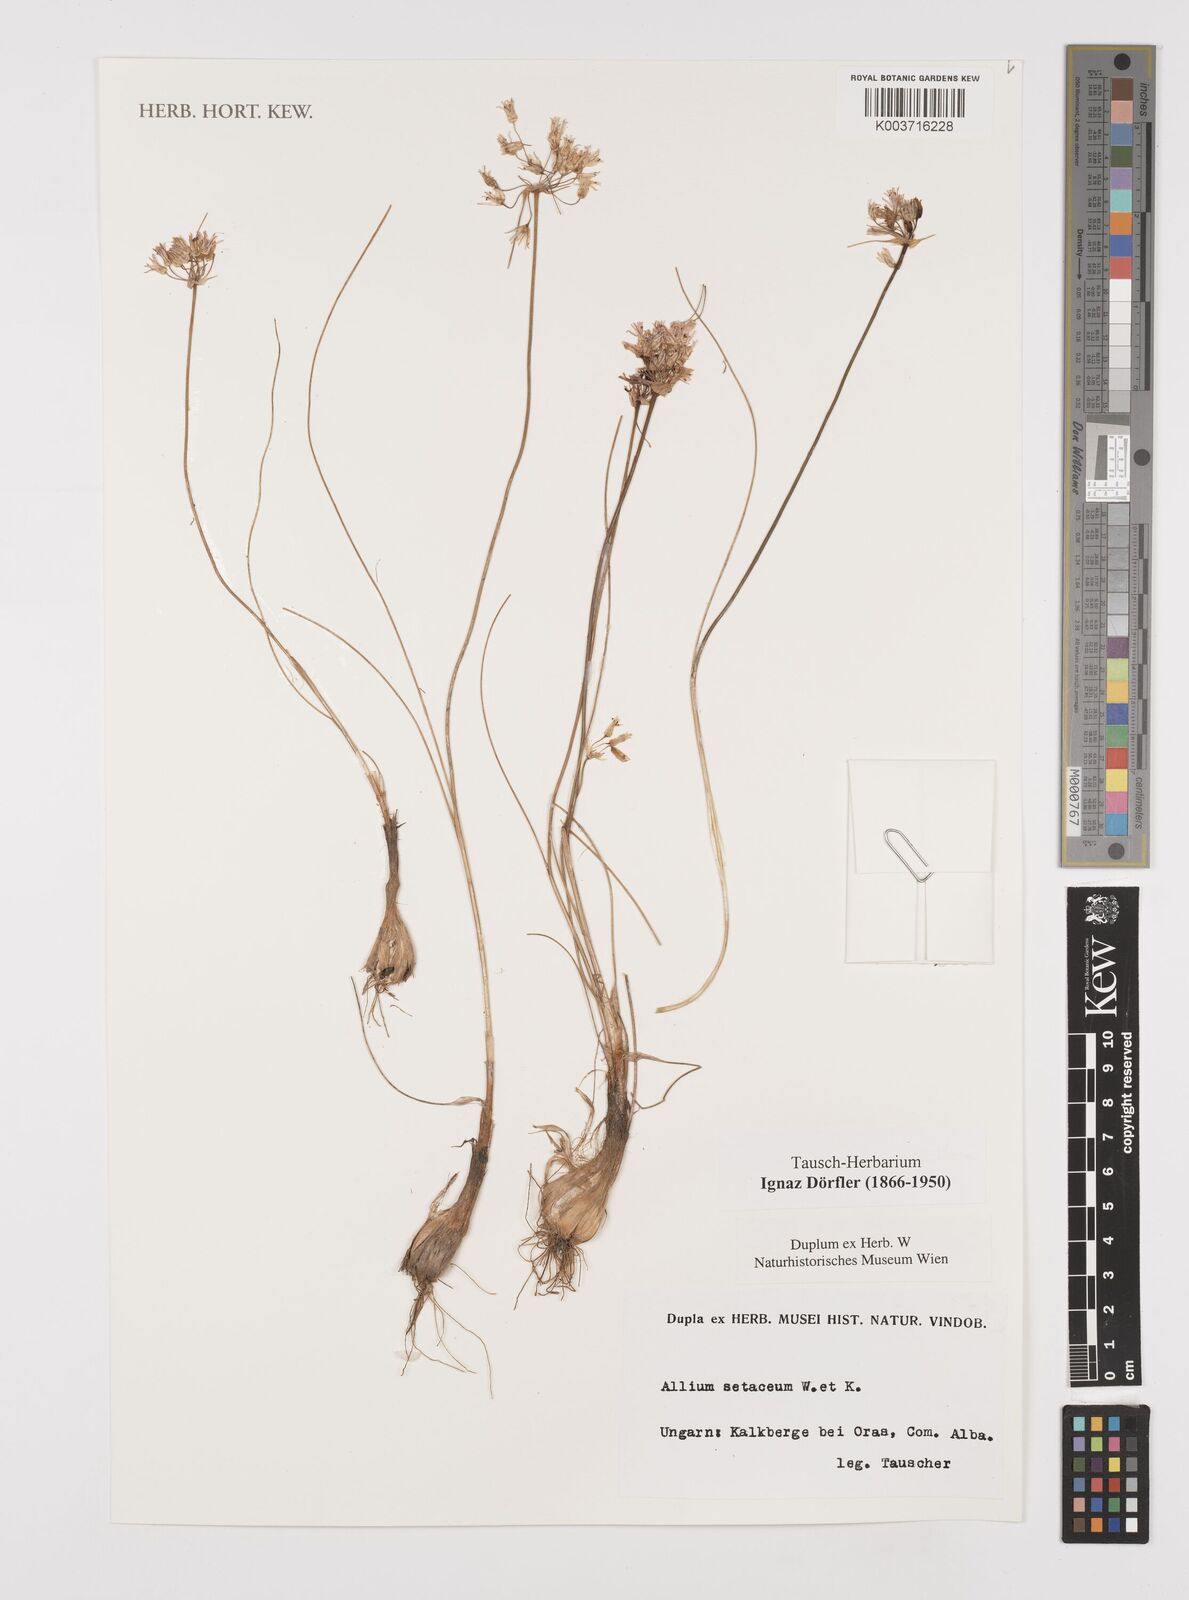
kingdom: Plantae
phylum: Tracheophyta
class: Liliopsida
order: Asparagales
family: Amaryllidaceae
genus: Allium
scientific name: Allium moschatum
